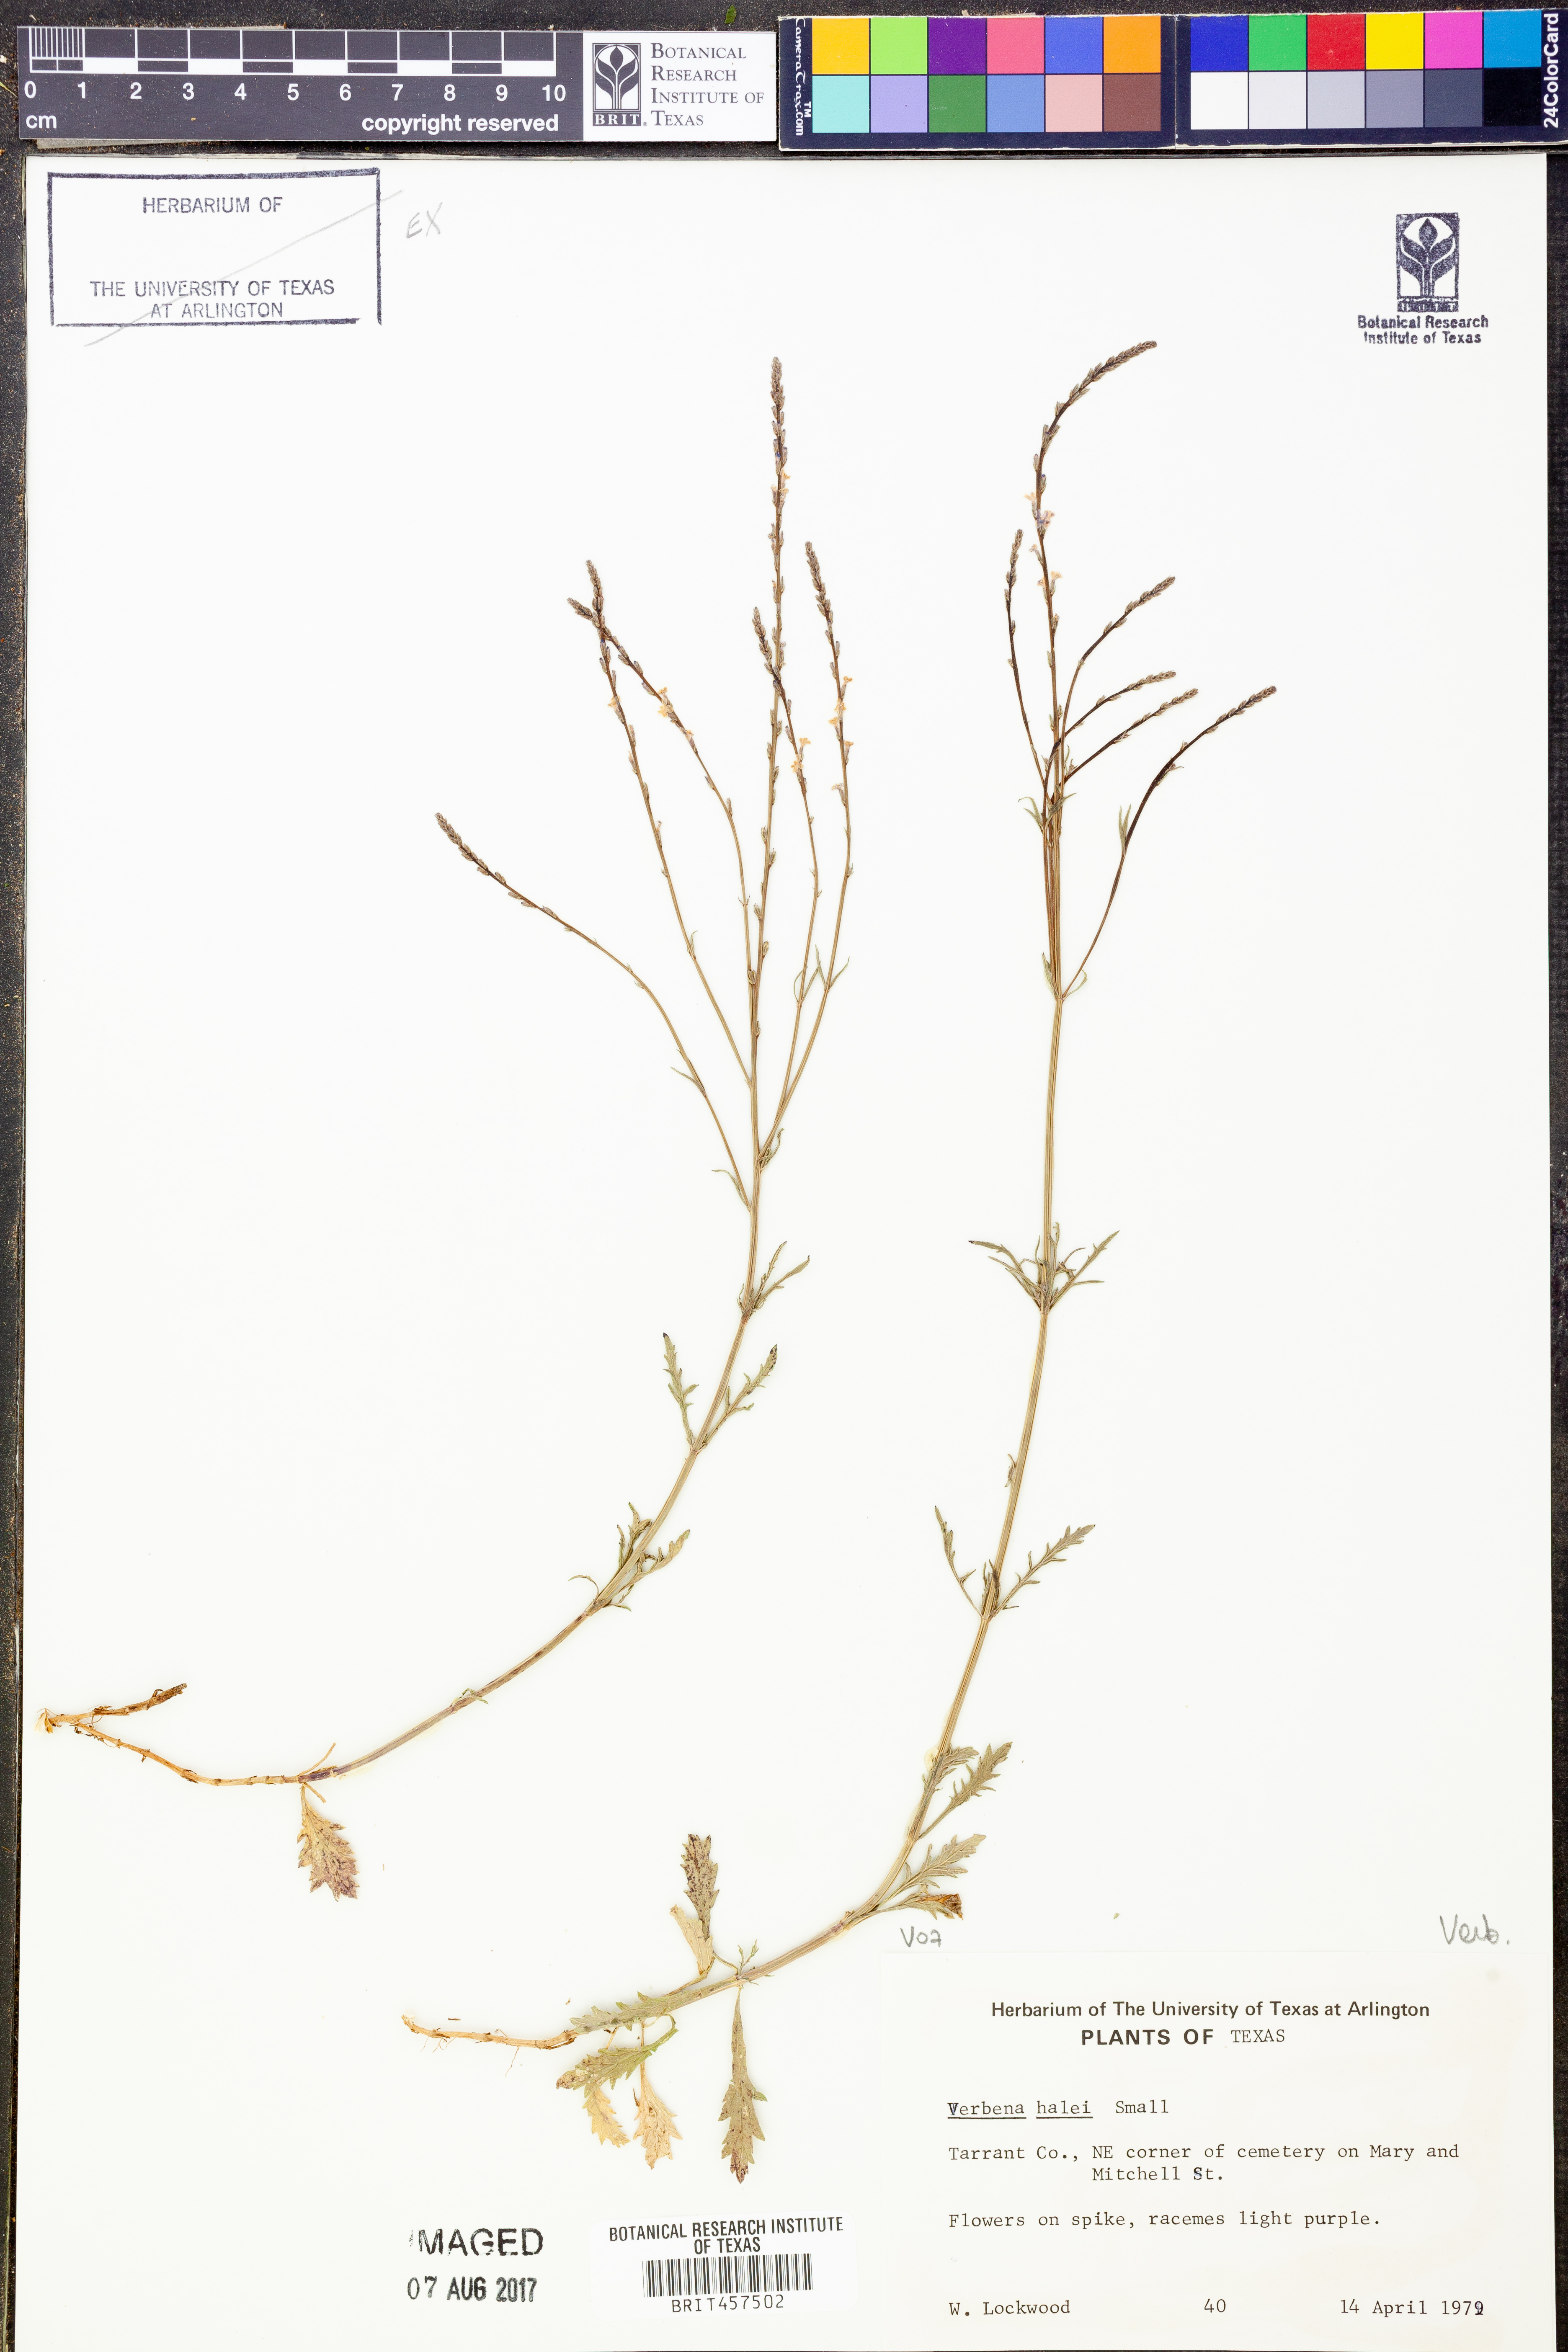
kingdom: Plantae
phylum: Tracheophyta
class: Magnoliopsida
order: Lamiales
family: Verbenaceae
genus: Verbena
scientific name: Verbena halei
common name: Texas vervain
